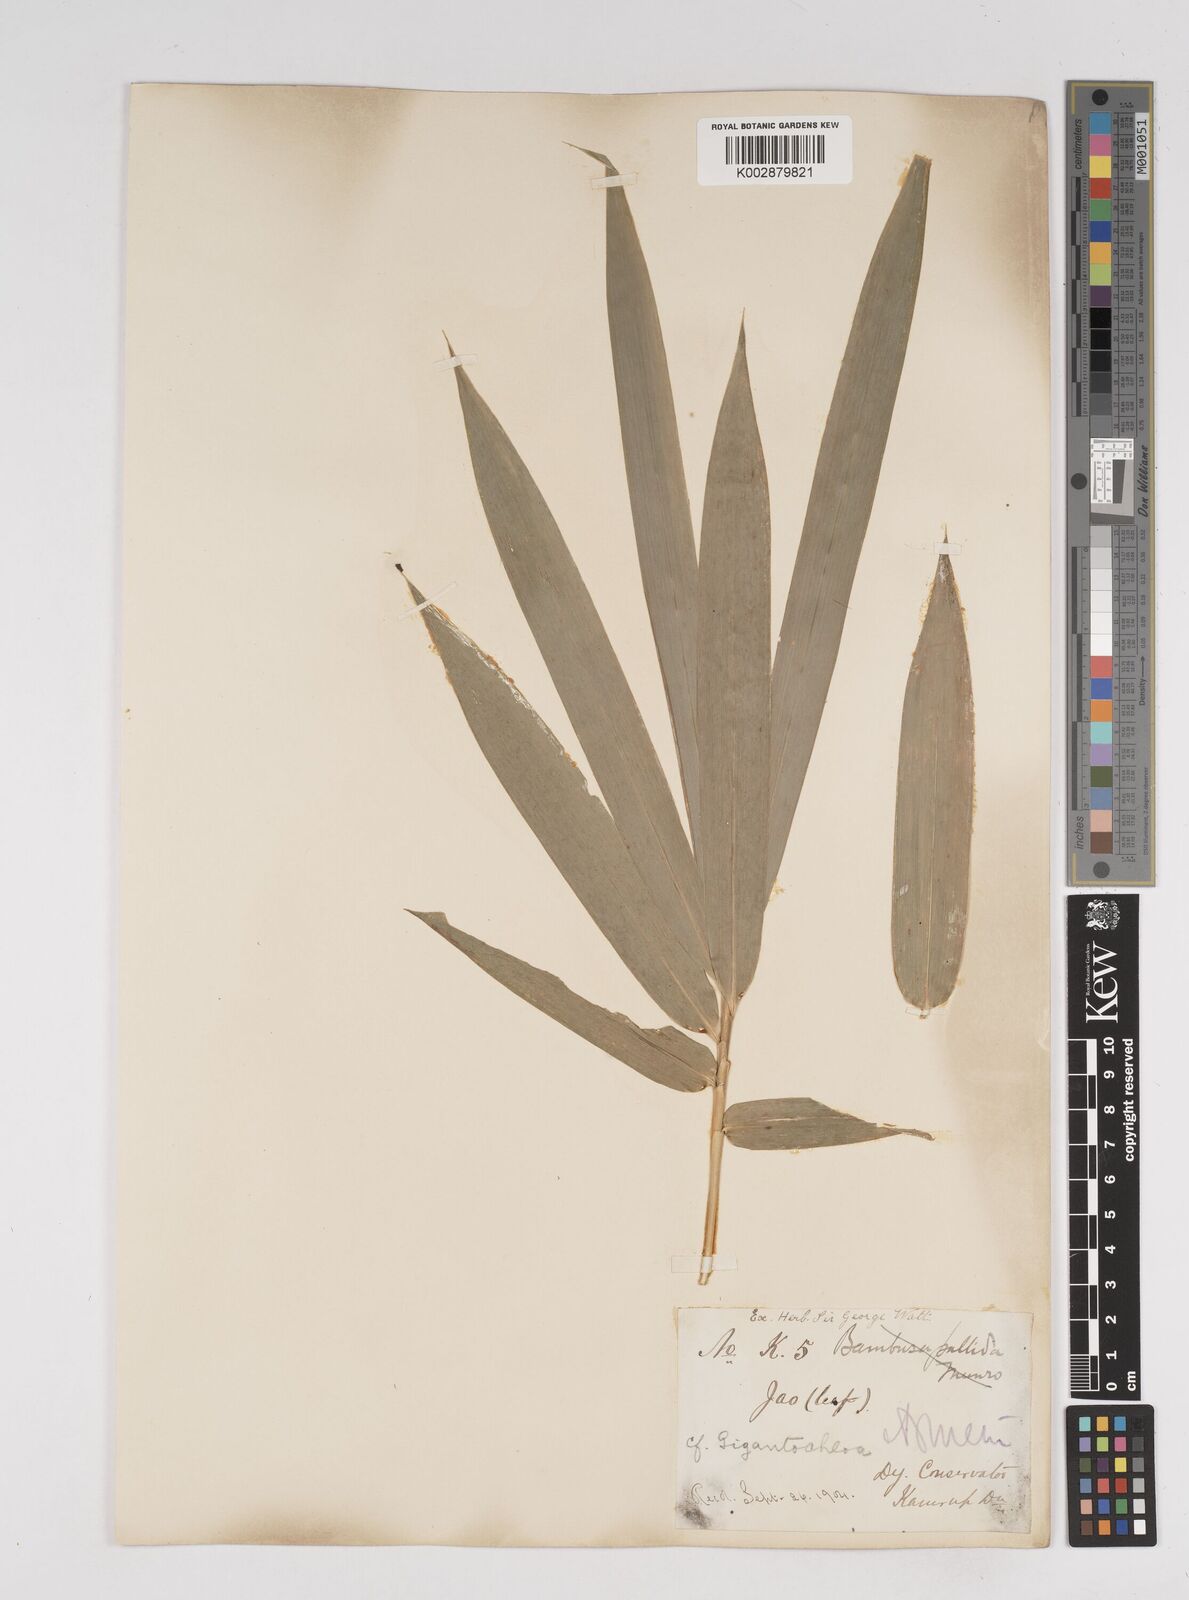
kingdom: Plantae
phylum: Tracheophyta
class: Liliopsida
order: Poales
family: Poaceae
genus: Gigantochloa
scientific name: Gigantochloa
